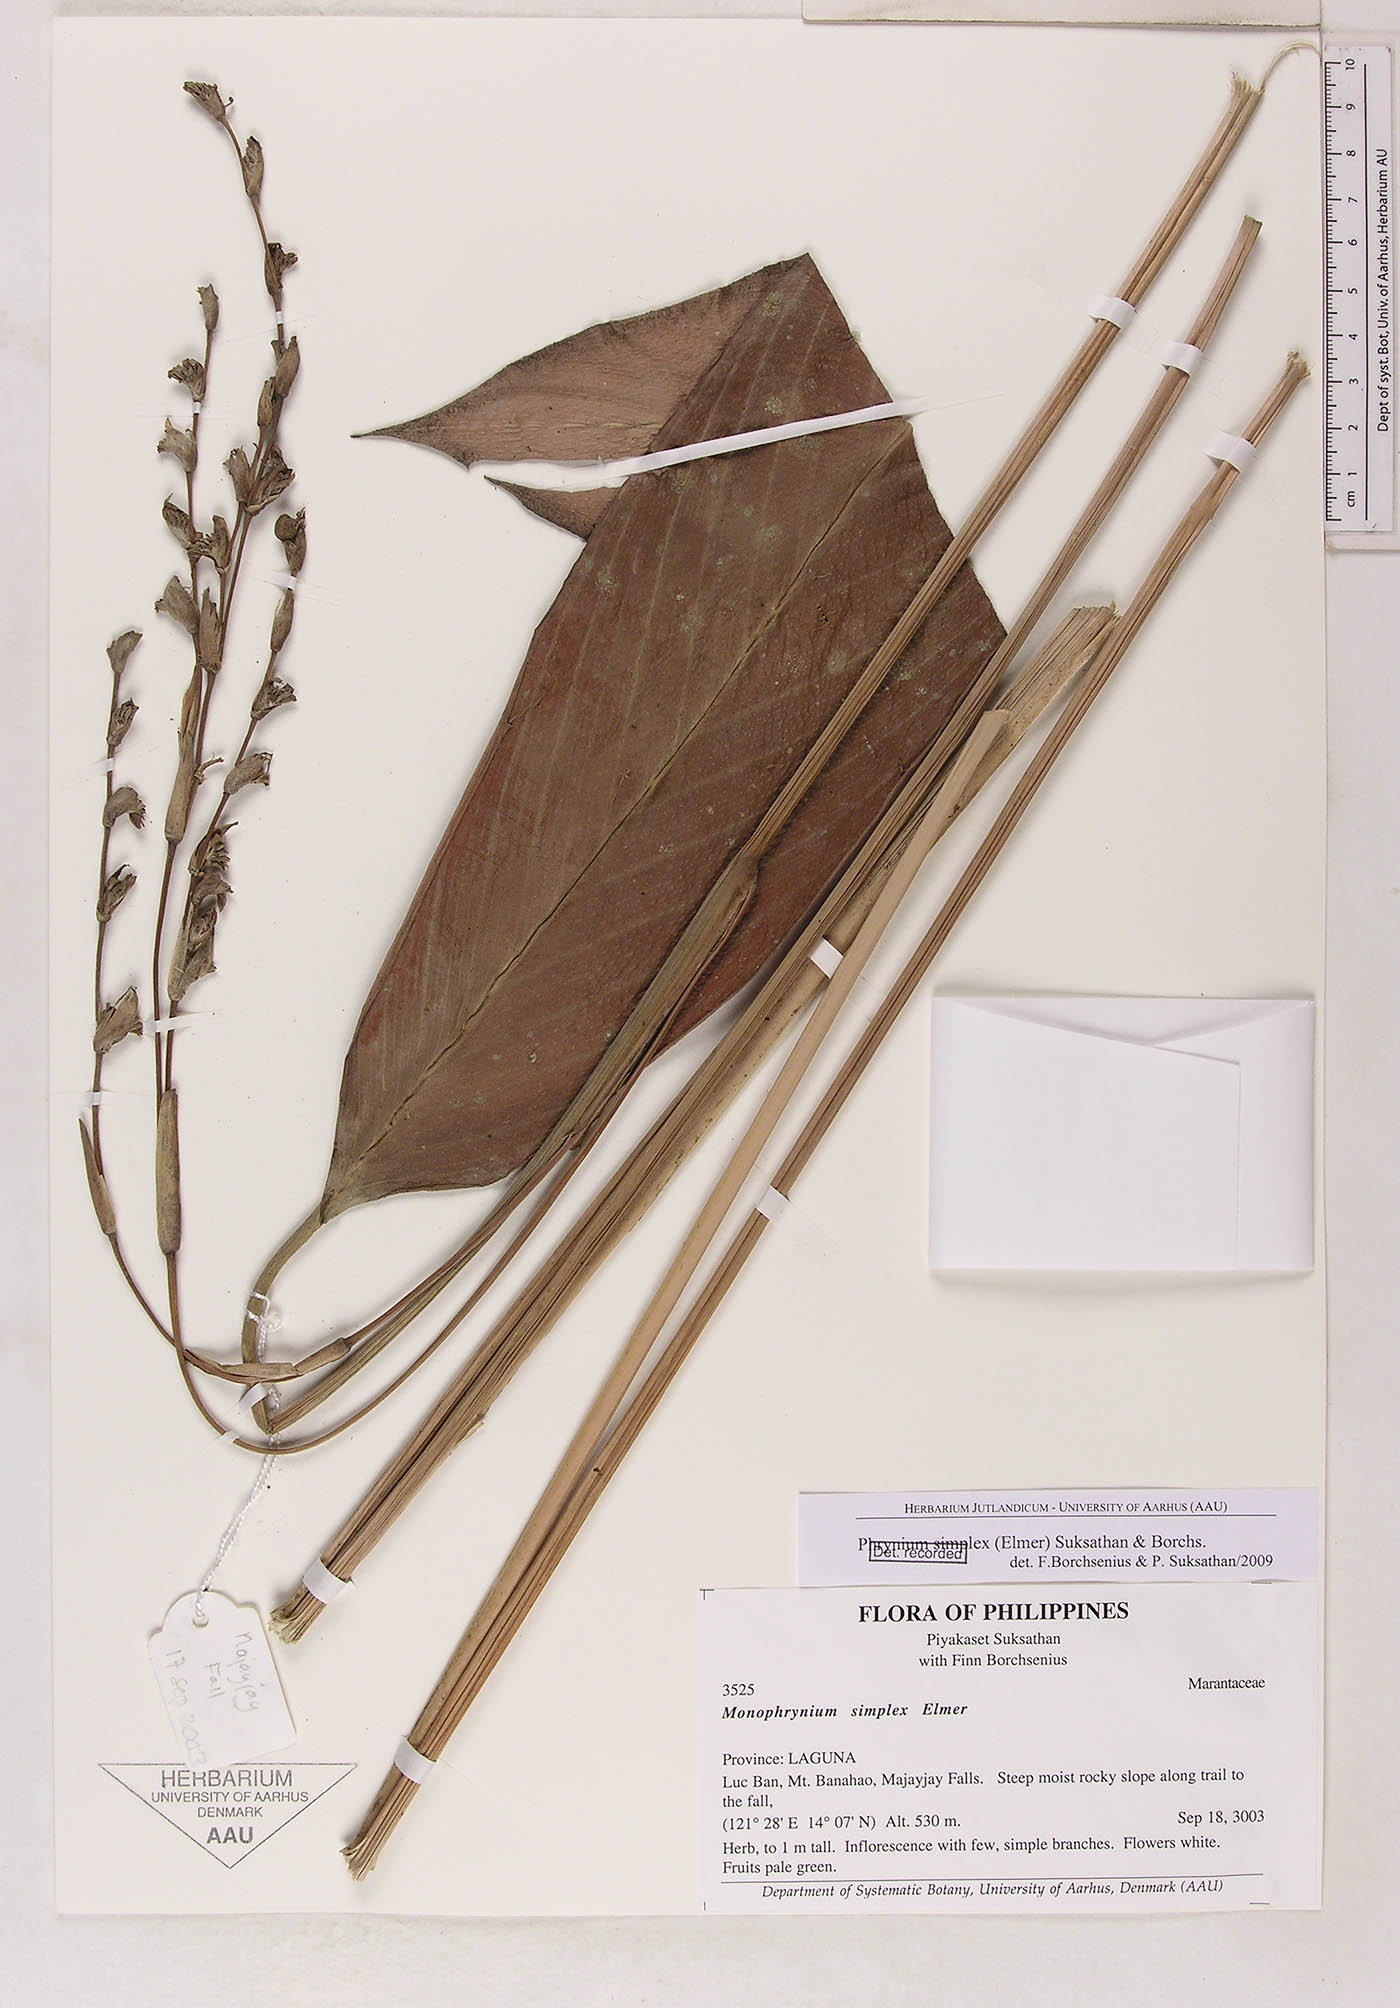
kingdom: Plantae
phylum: Tracheophyta
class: Liliopsida
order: Zingiberales
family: Marantaceae
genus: Phrynium
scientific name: Phrynium simplex
